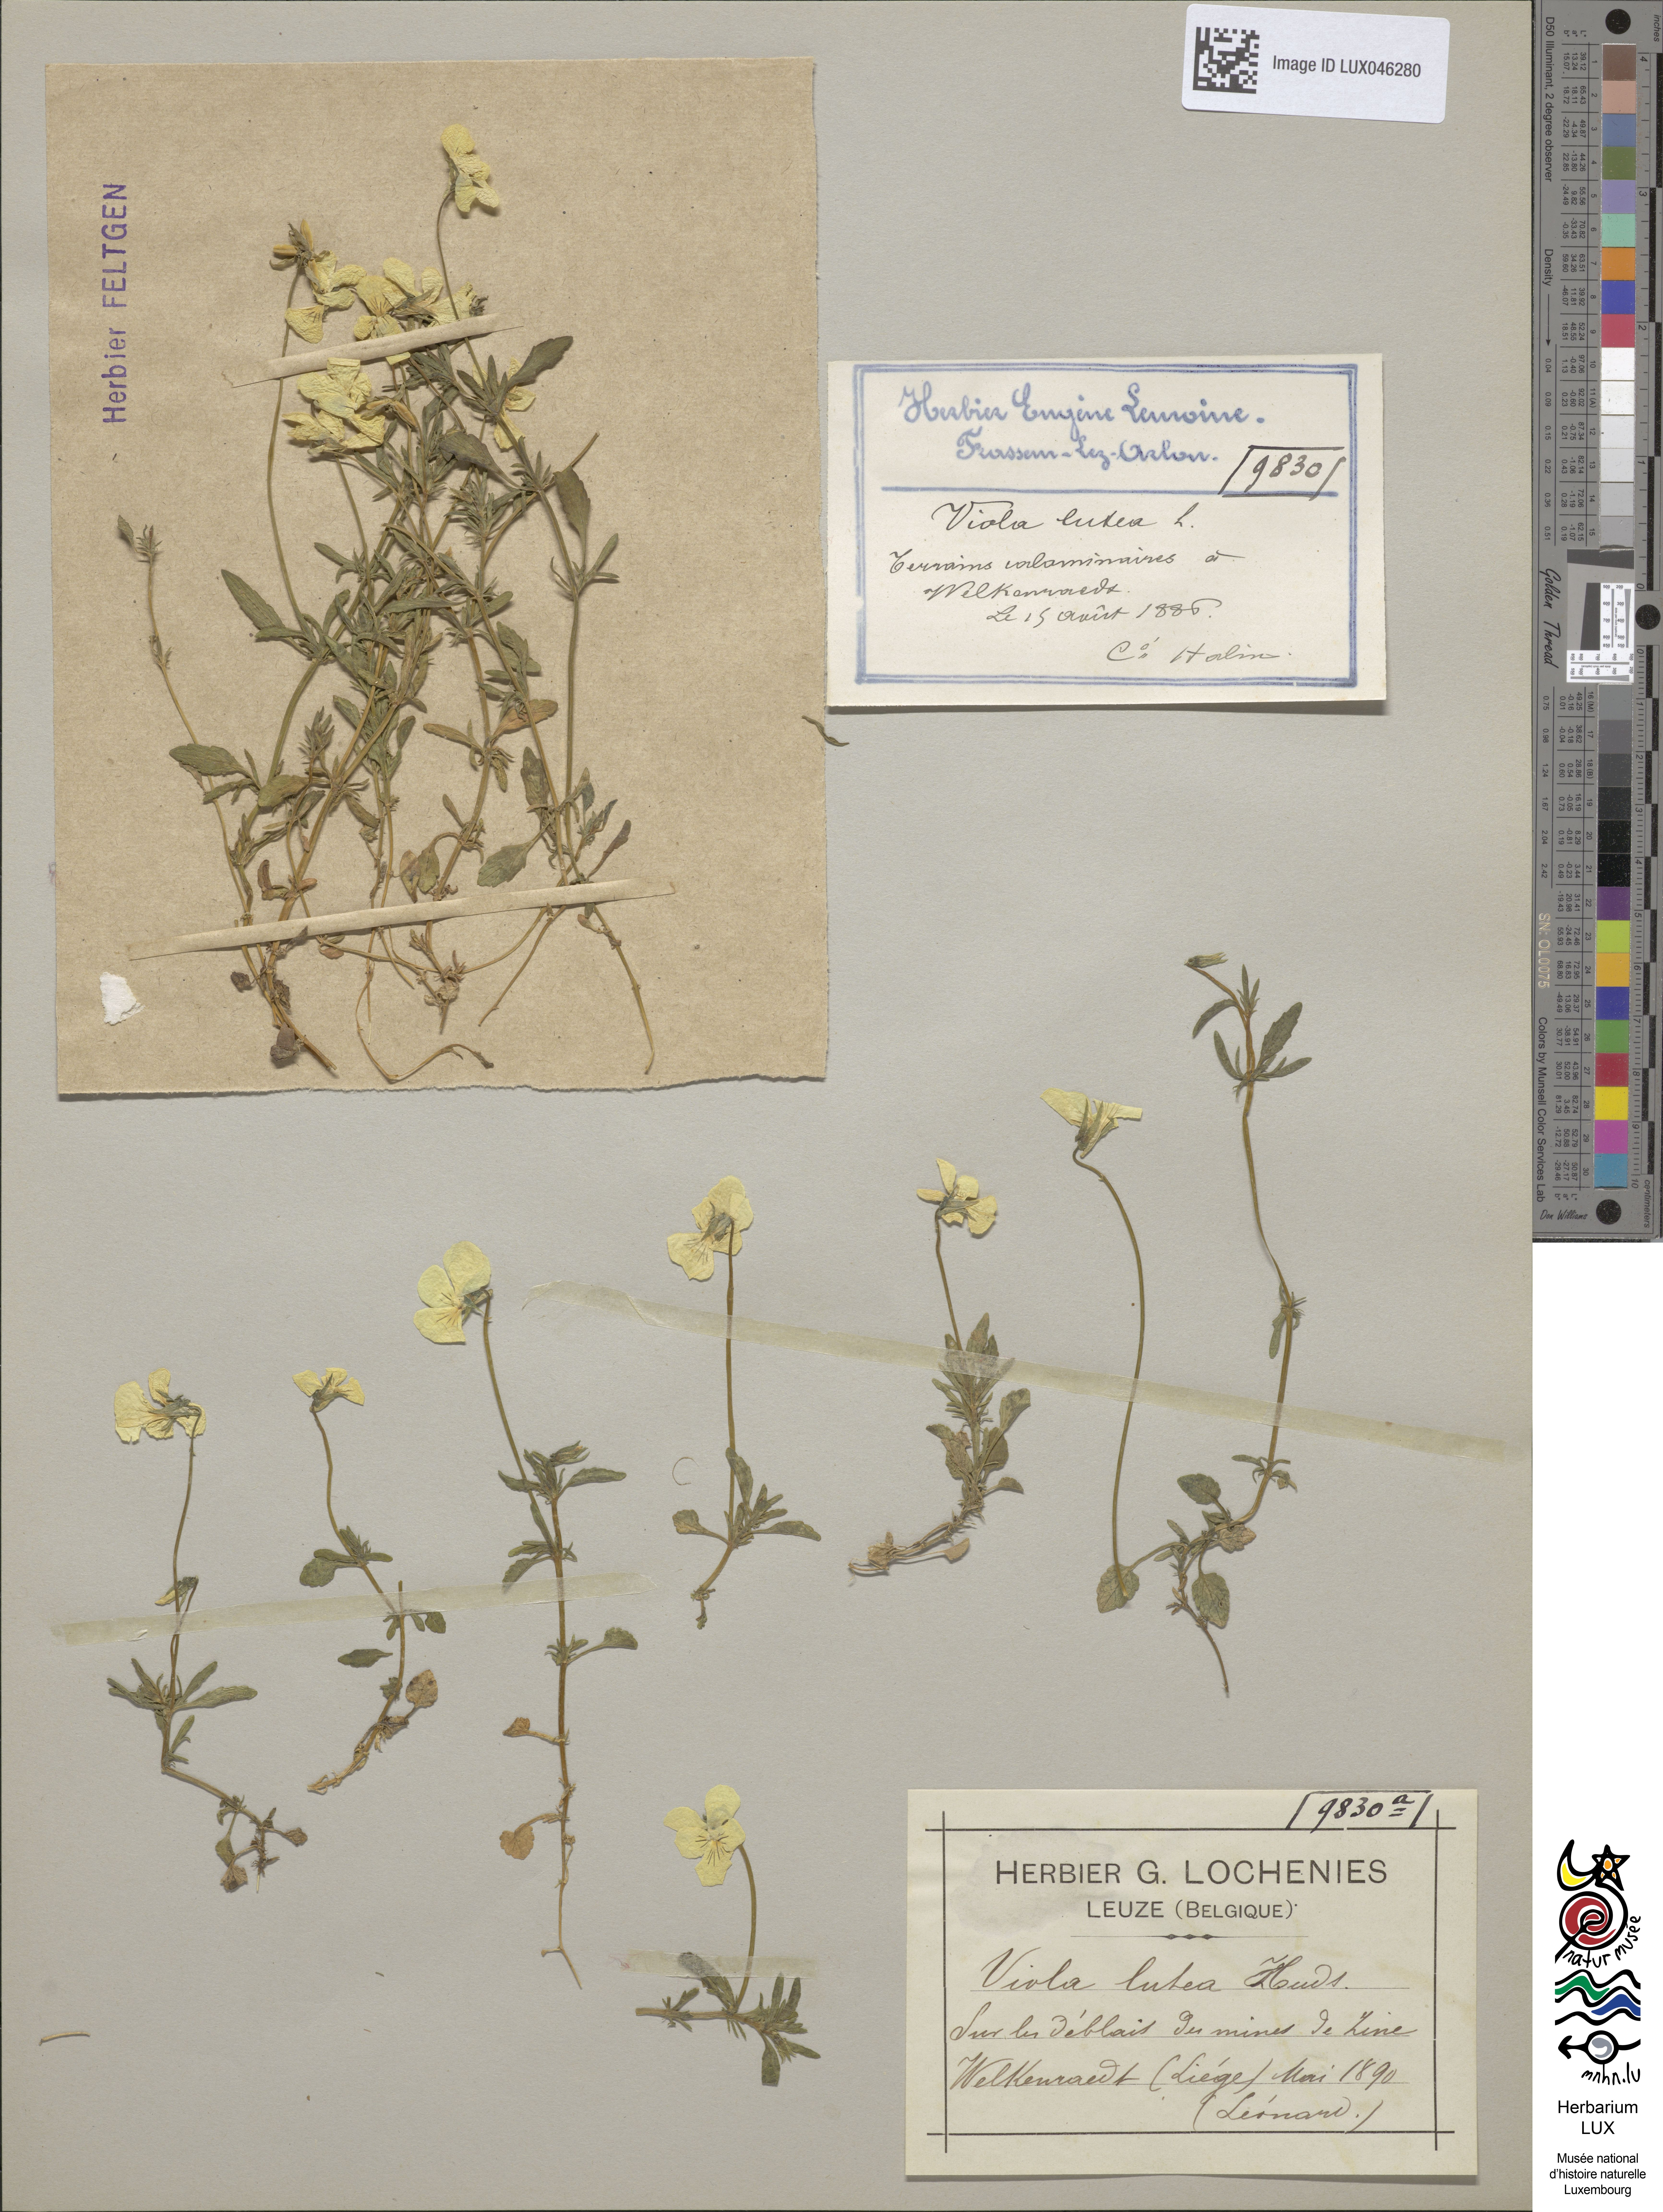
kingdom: Plantae
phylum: Tracheophyta
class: Magnoliopsida
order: Malpighiales
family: Violaceae
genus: Viola
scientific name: Viola lutea
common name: Mountain pansy
